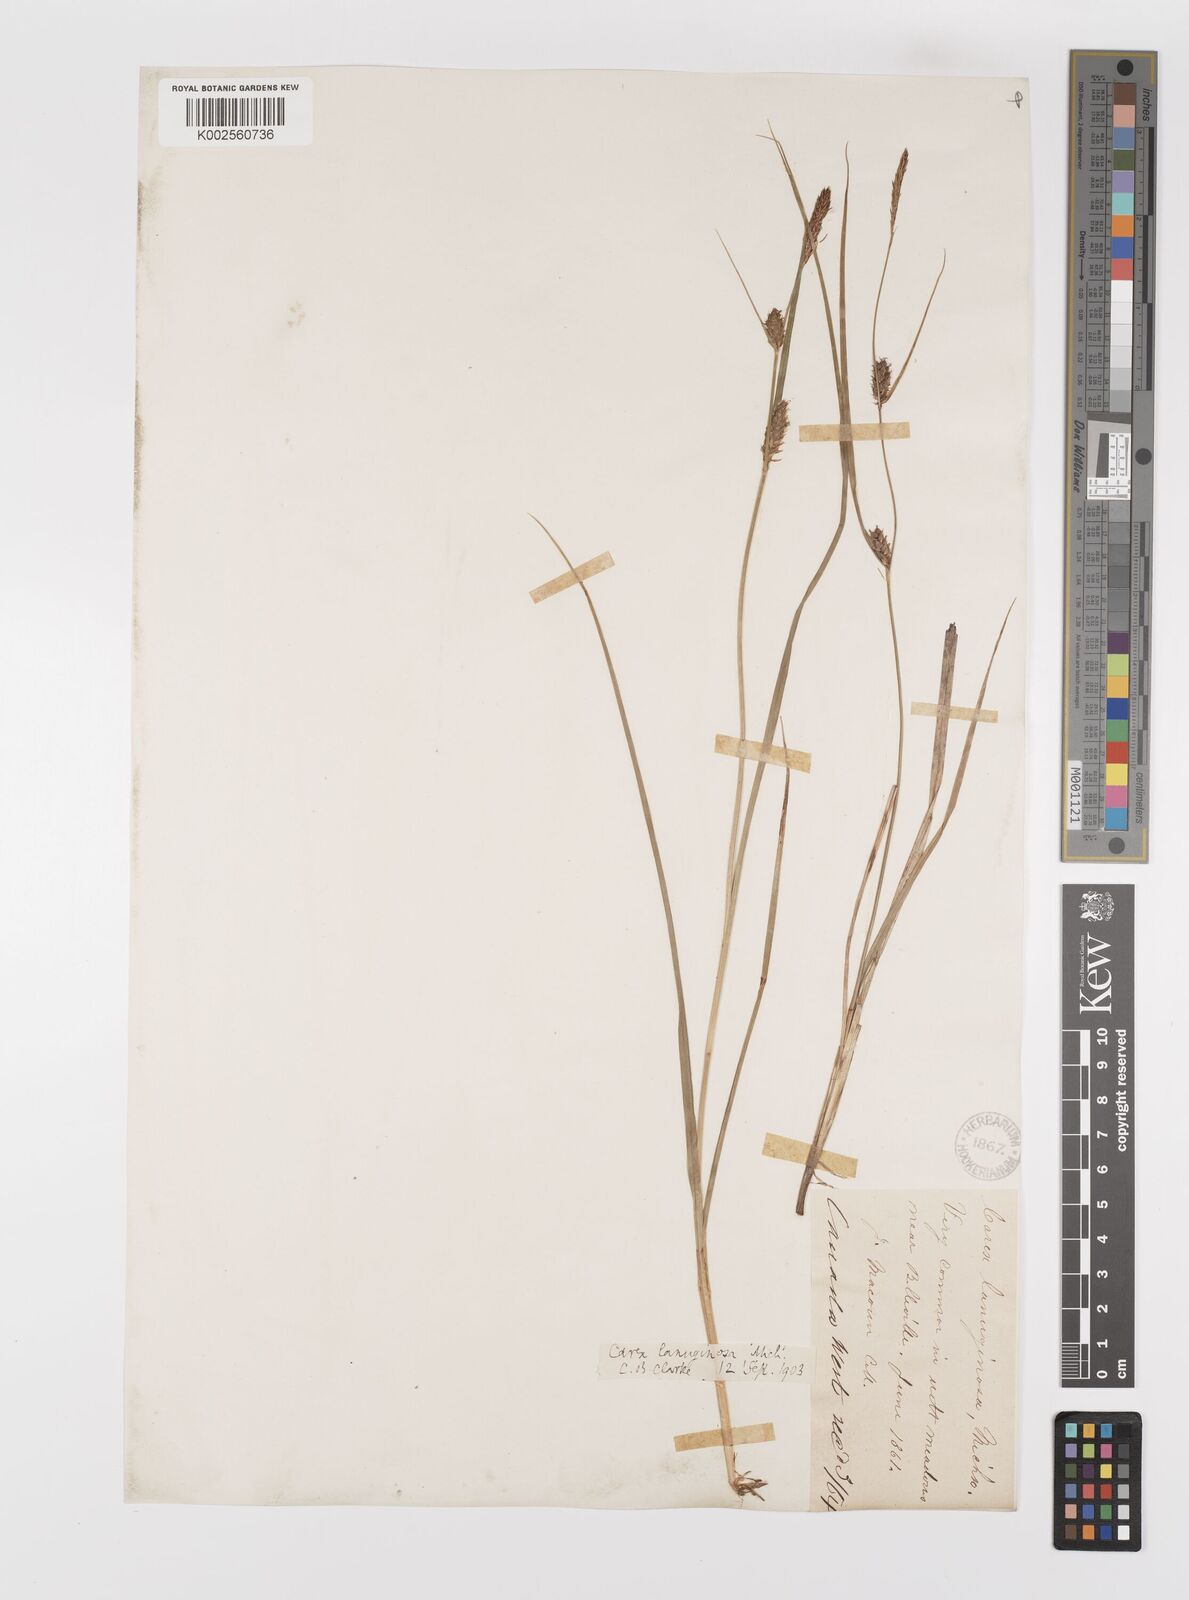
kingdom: Plantae
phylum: Tracheophyta
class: Liliopsida
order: Poales
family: Cyperaceae
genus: Carex
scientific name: Carex lasiocarpa
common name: Slender sedge
